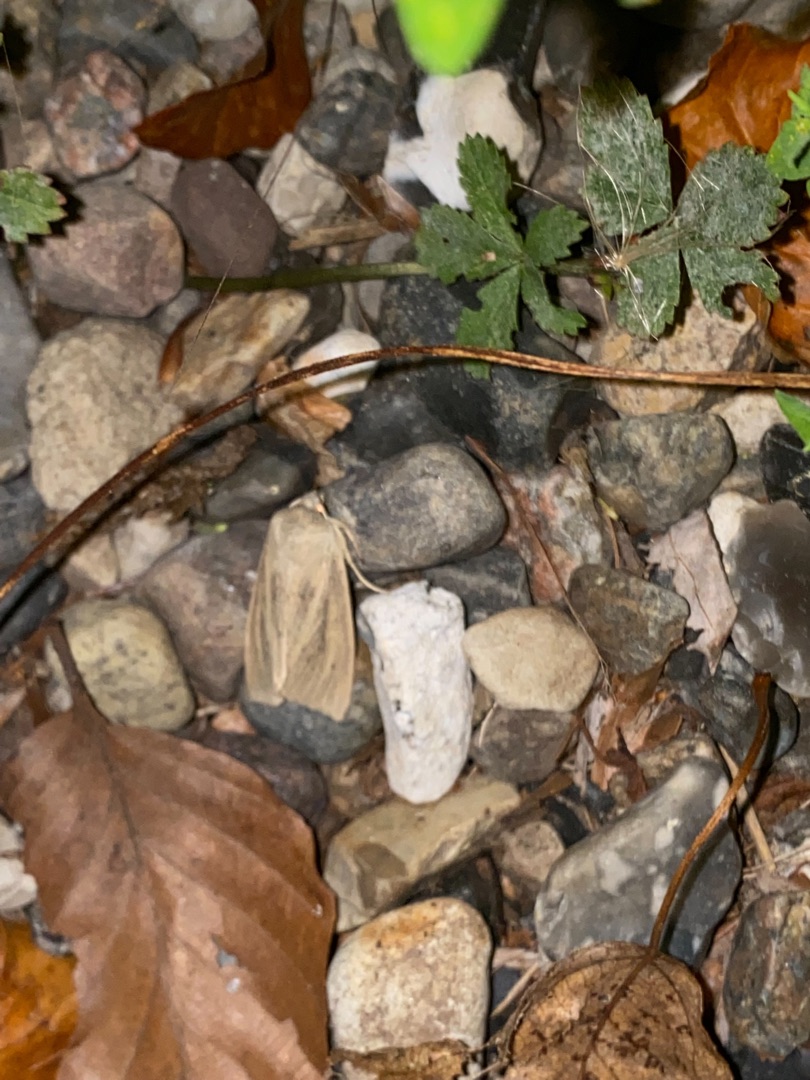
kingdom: Animalia
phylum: Arthropoda
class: Insecta
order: Lepidoptera
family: Noctuidae
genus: Rhizedra
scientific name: Rhizedra lutosa
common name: Stor sivugle
